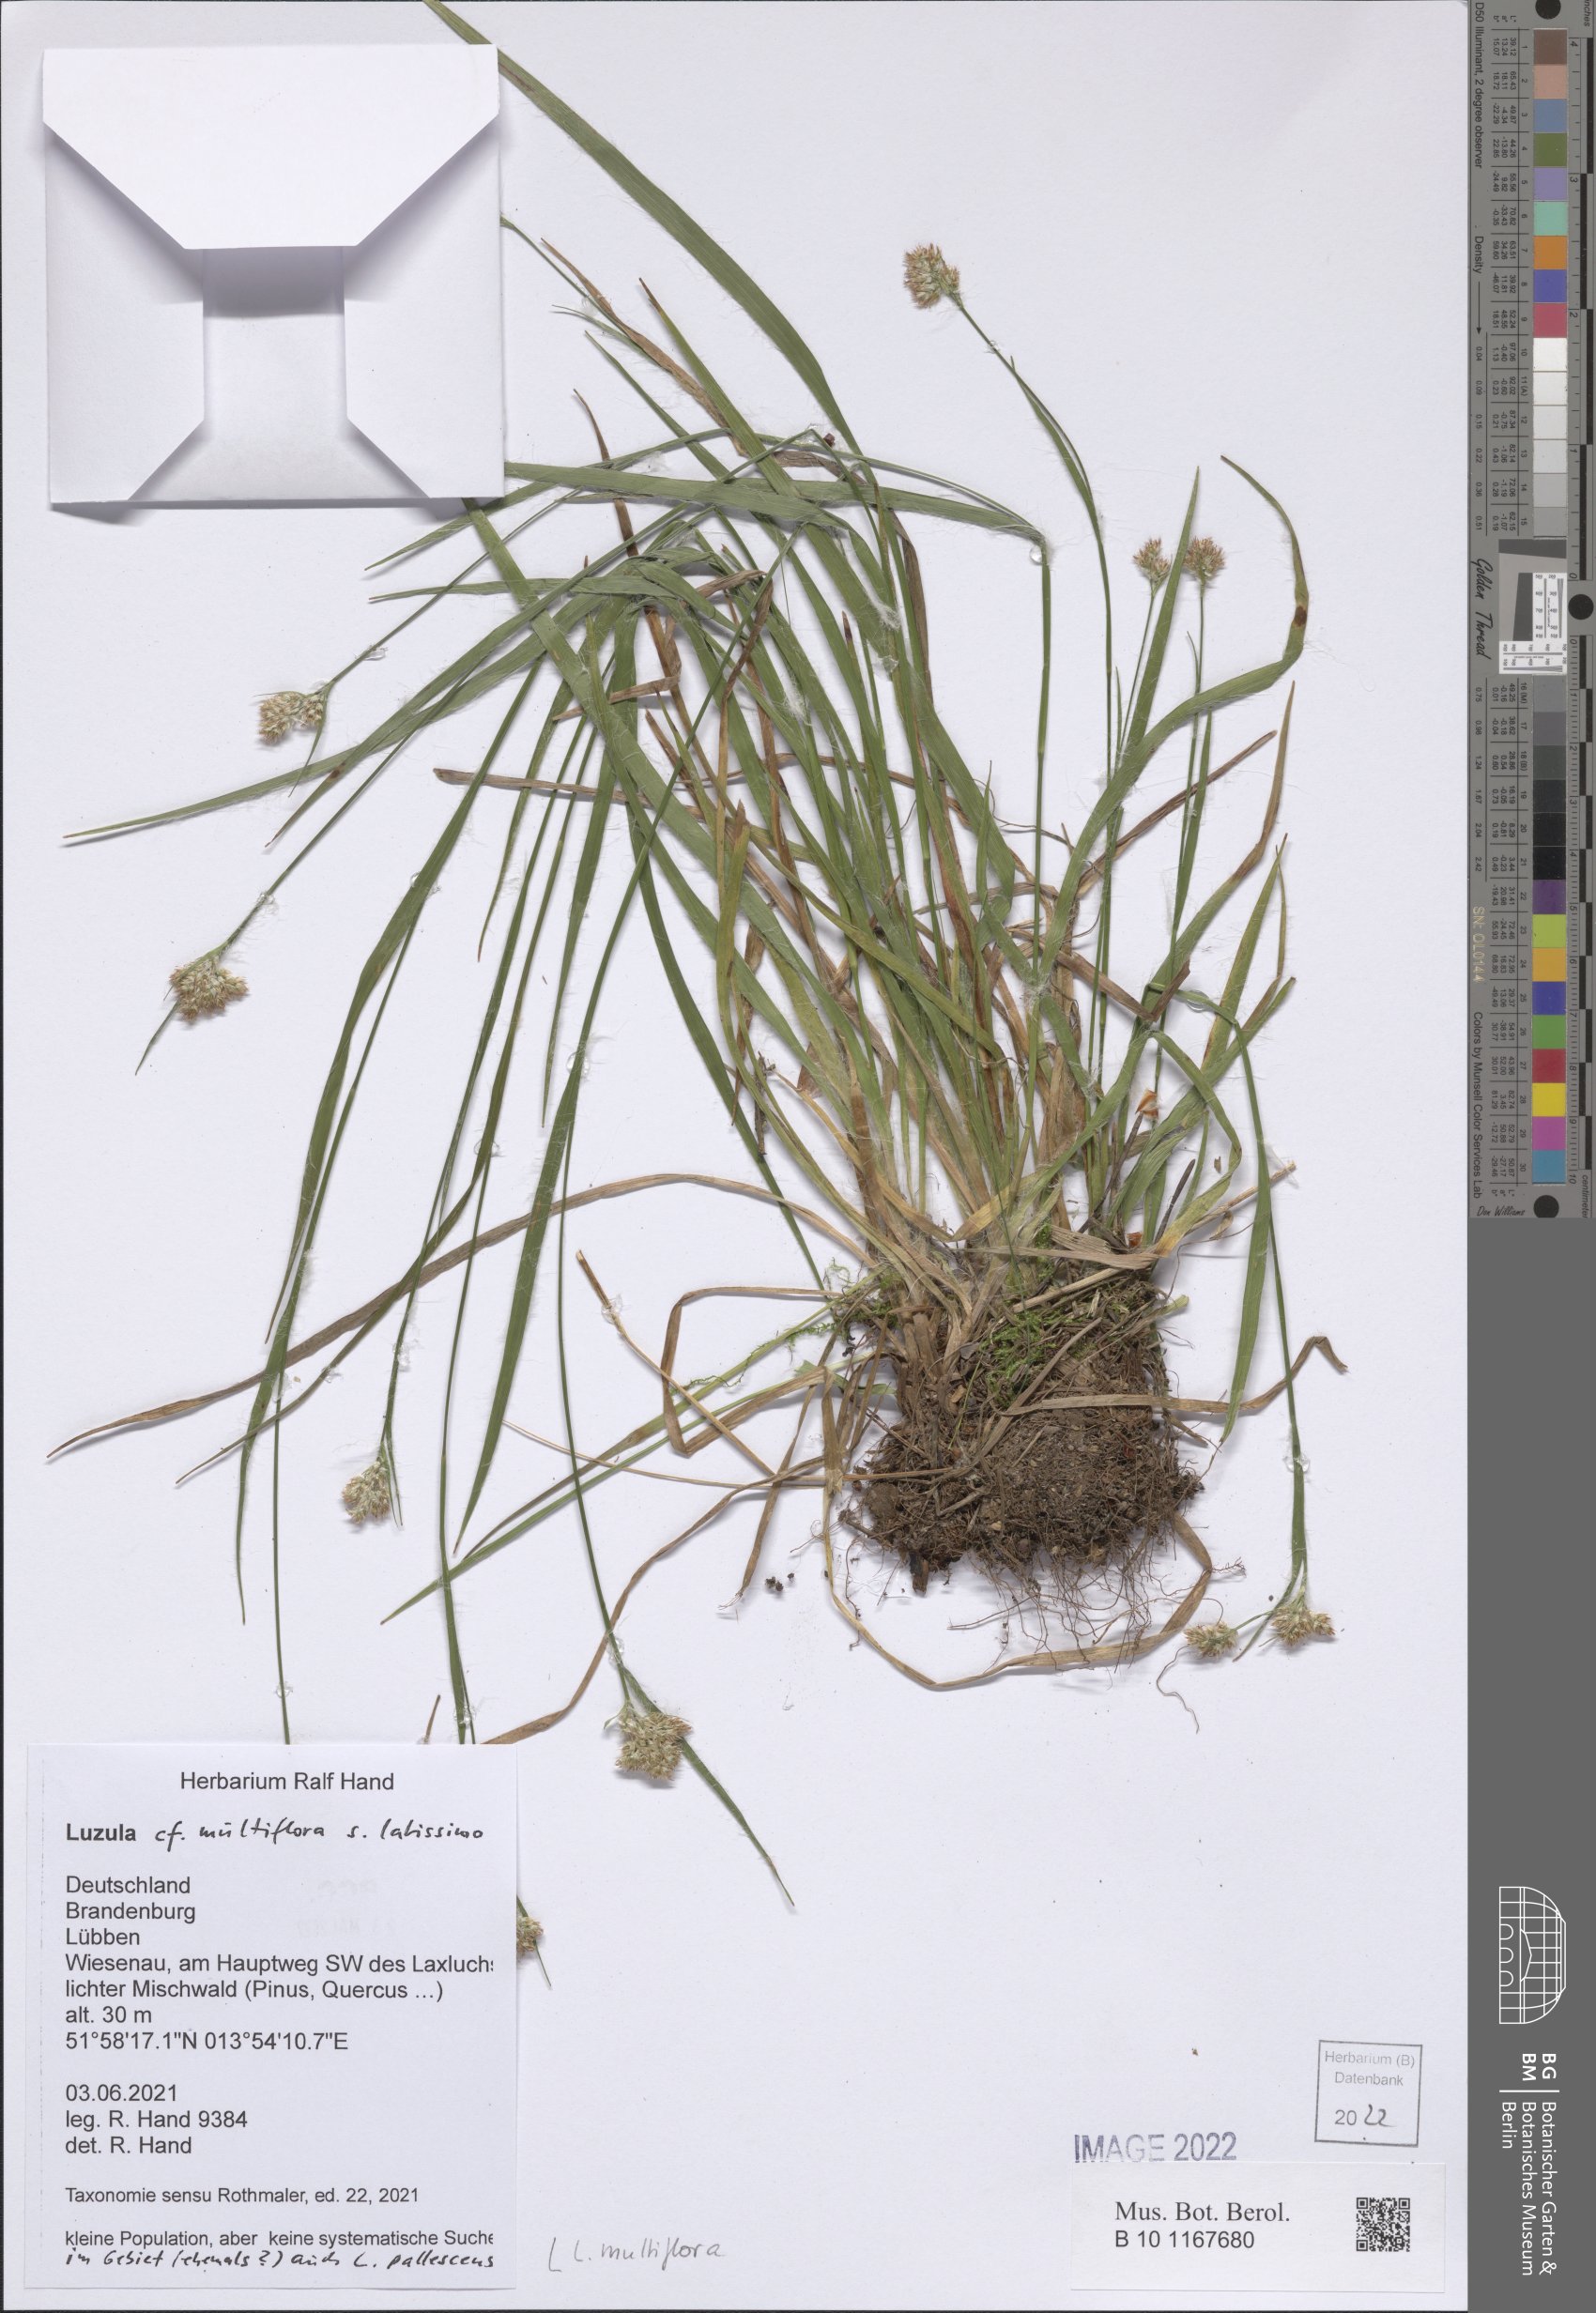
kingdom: Plantae
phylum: Tracheophyta
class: Liliopsida
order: Poales
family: Juncaceae
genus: Luzula
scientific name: Luzula multiflora
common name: Heath wood-rush
